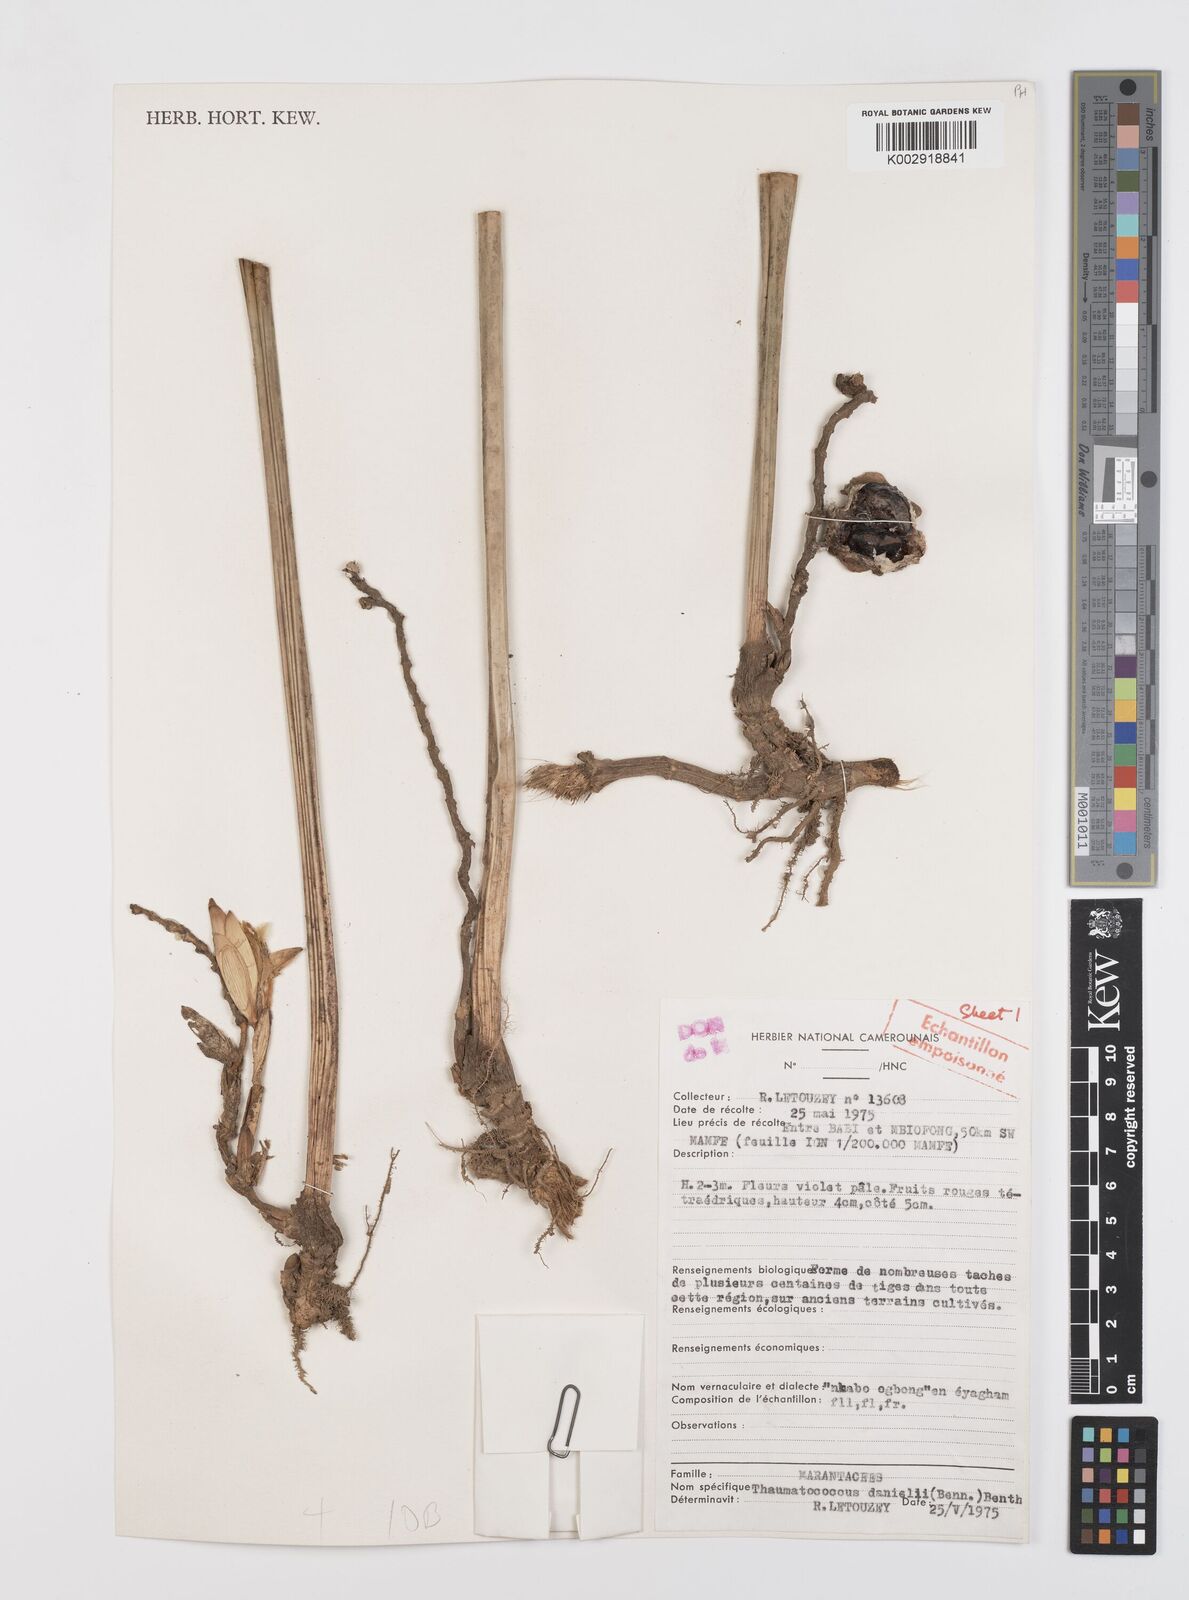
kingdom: Plantae
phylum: Tracheophyta
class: Liliopsida
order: Zingiberales
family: Marantaceae
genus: Thaumatococcus
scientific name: Thaumatococcus daniellii
